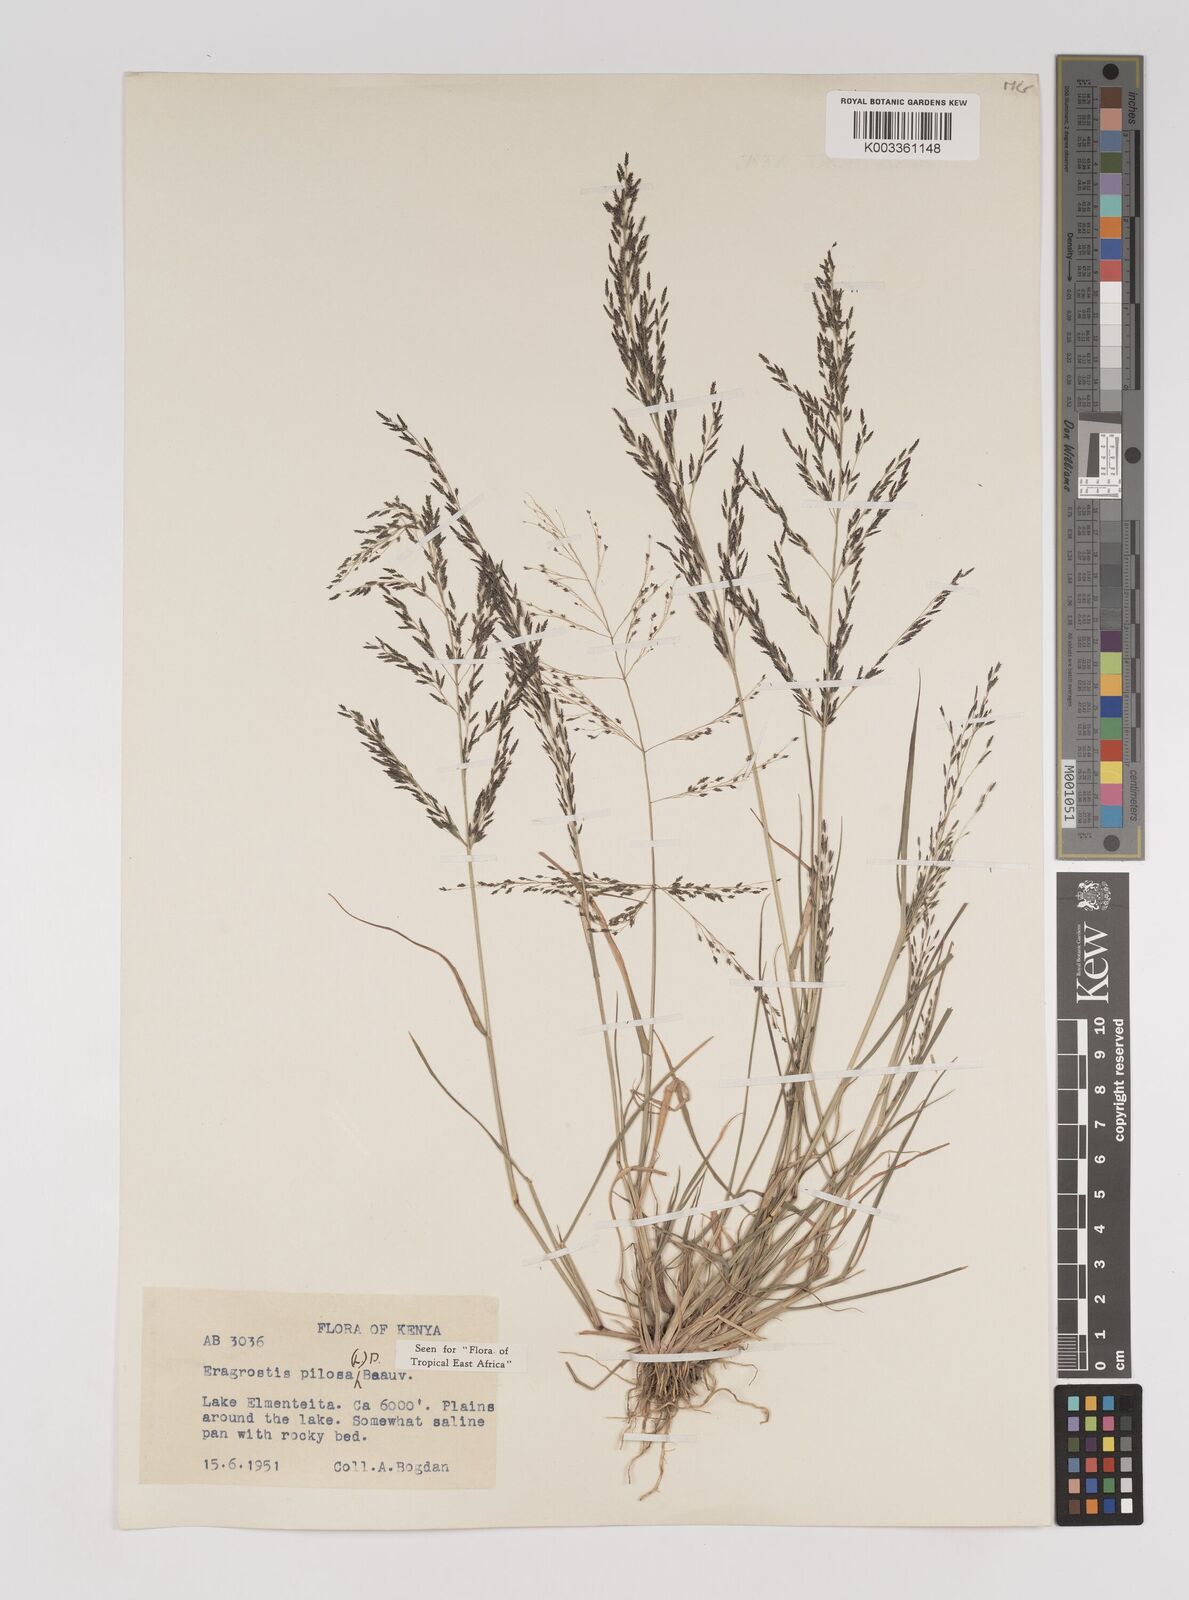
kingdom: Plantae
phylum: Tracheophyta
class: Liliopsida
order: Poales
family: Poaceae
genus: Eragrostis
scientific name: Eragrostis pilosa
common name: Indian lovegrass
